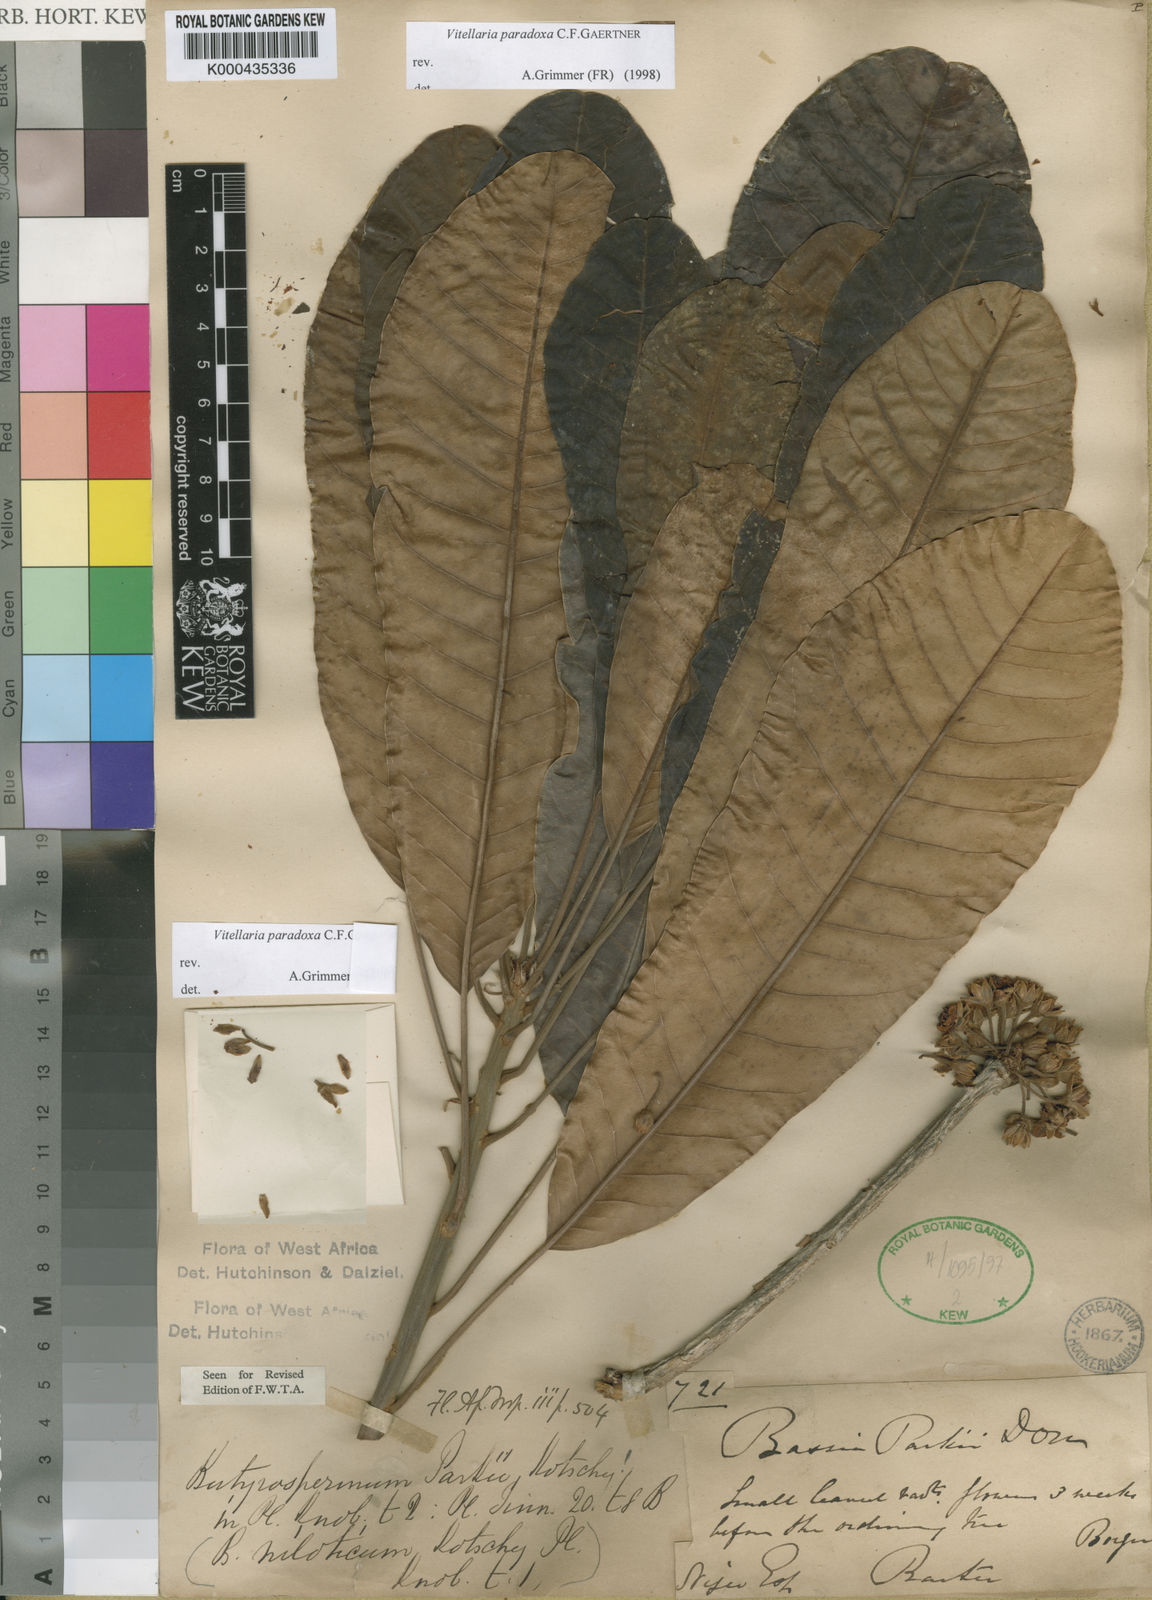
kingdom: Plantae
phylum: Tracheophyta
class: Magnoliopsida
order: Ericales
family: Sapotaceae
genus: Vitellaria
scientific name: Vitellaria paradoxa
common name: Shea butter tree
